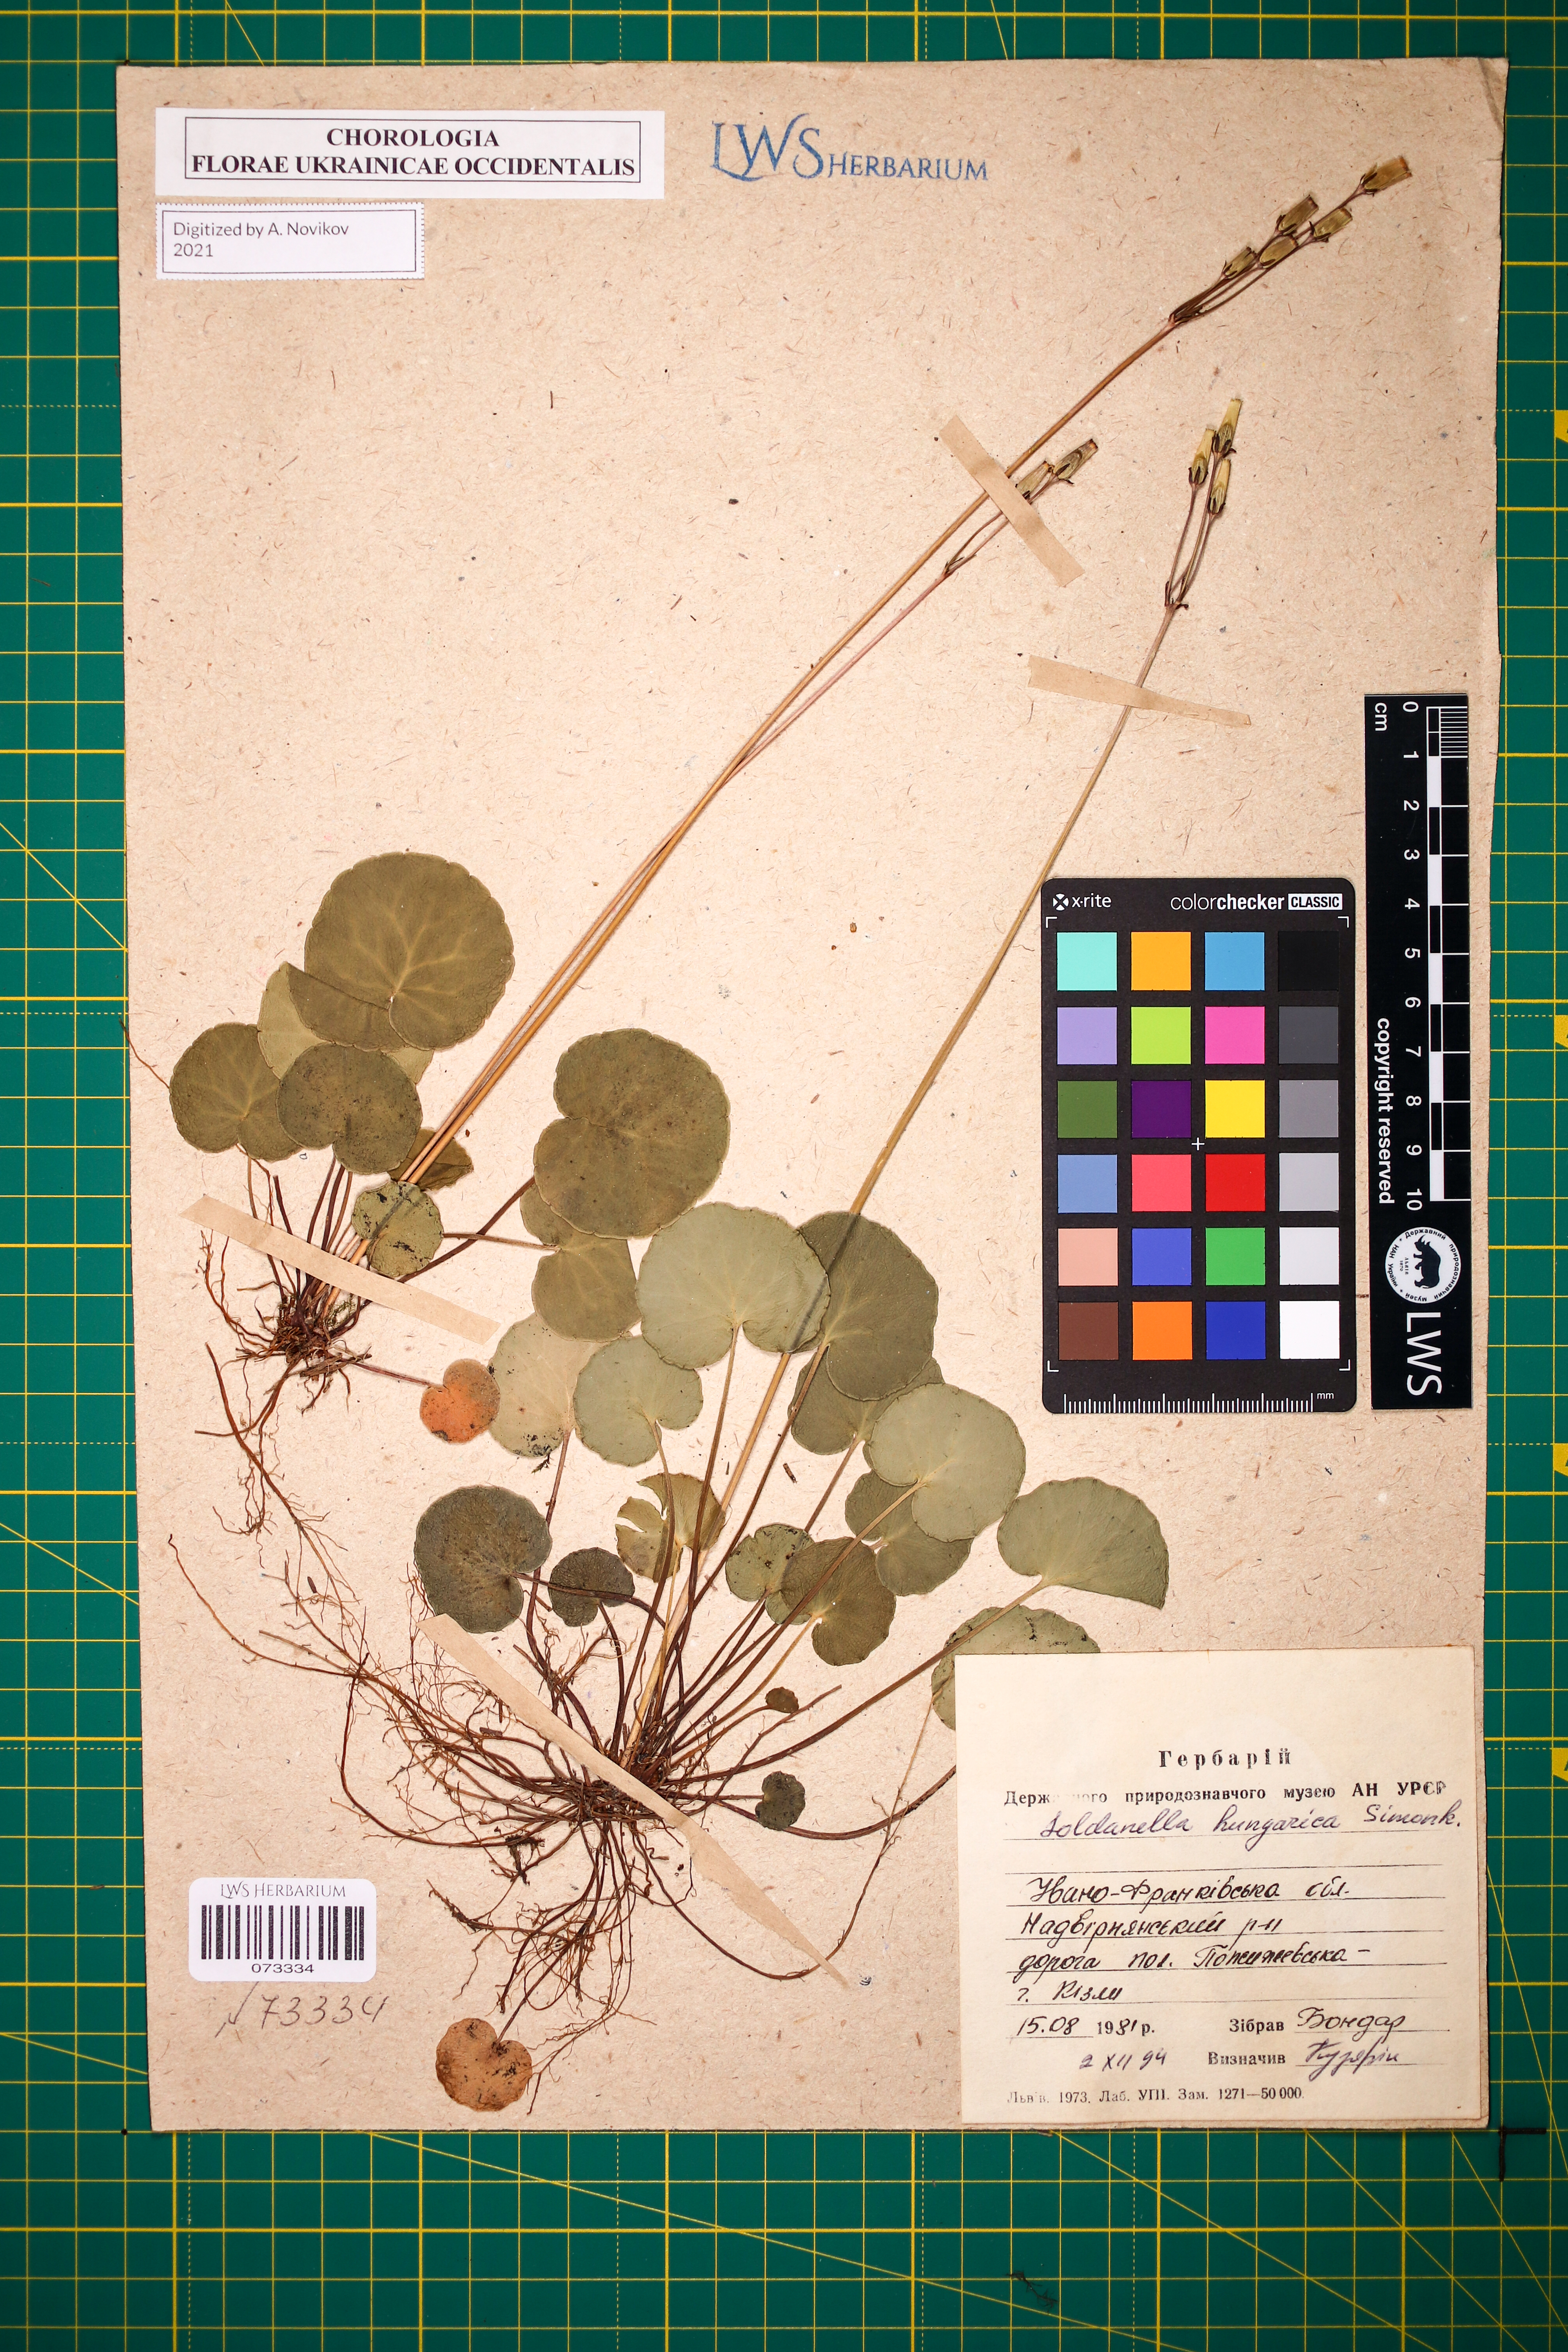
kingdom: Plantae
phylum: Tracheophyta
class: Magnoliopsida
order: Ericales
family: Primulaceae
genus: Soldanella
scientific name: Soldanella hungarica
